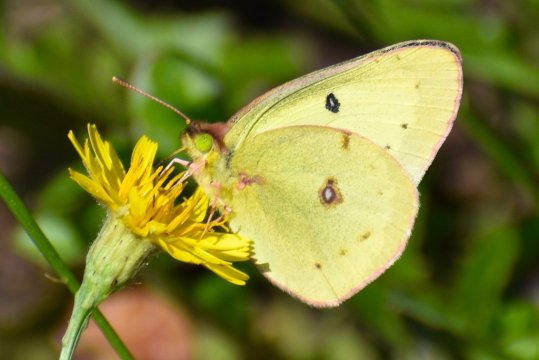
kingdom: Animalia
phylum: Arthropoda
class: Insecta
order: Lepidoptera
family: Pieridae
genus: Colias
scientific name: Colias philodice
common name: Clouded Sulphur
